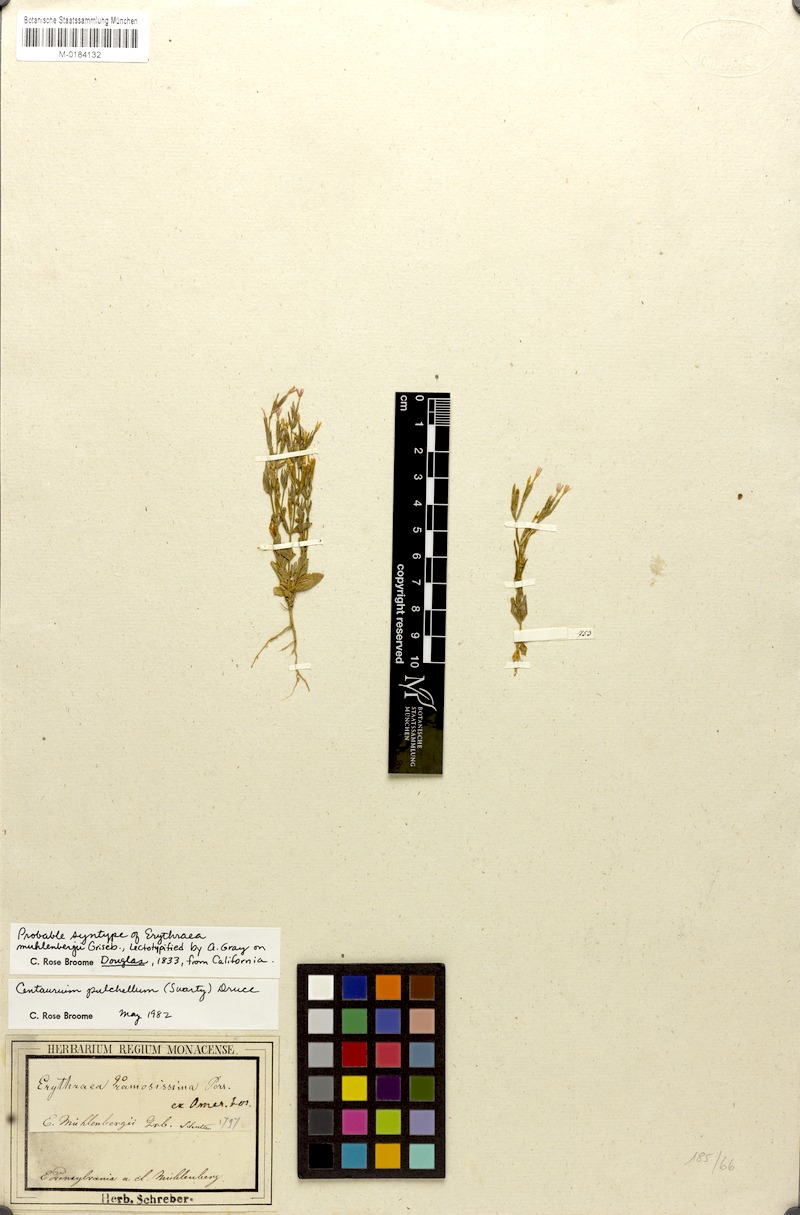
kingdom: Plantae
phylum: Tracheophyta
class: Magnoliopsida
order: Gentianales
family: Gentianaceae
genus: Centaurium
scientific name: Centaurium pulchellum
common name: Lesser centaury
